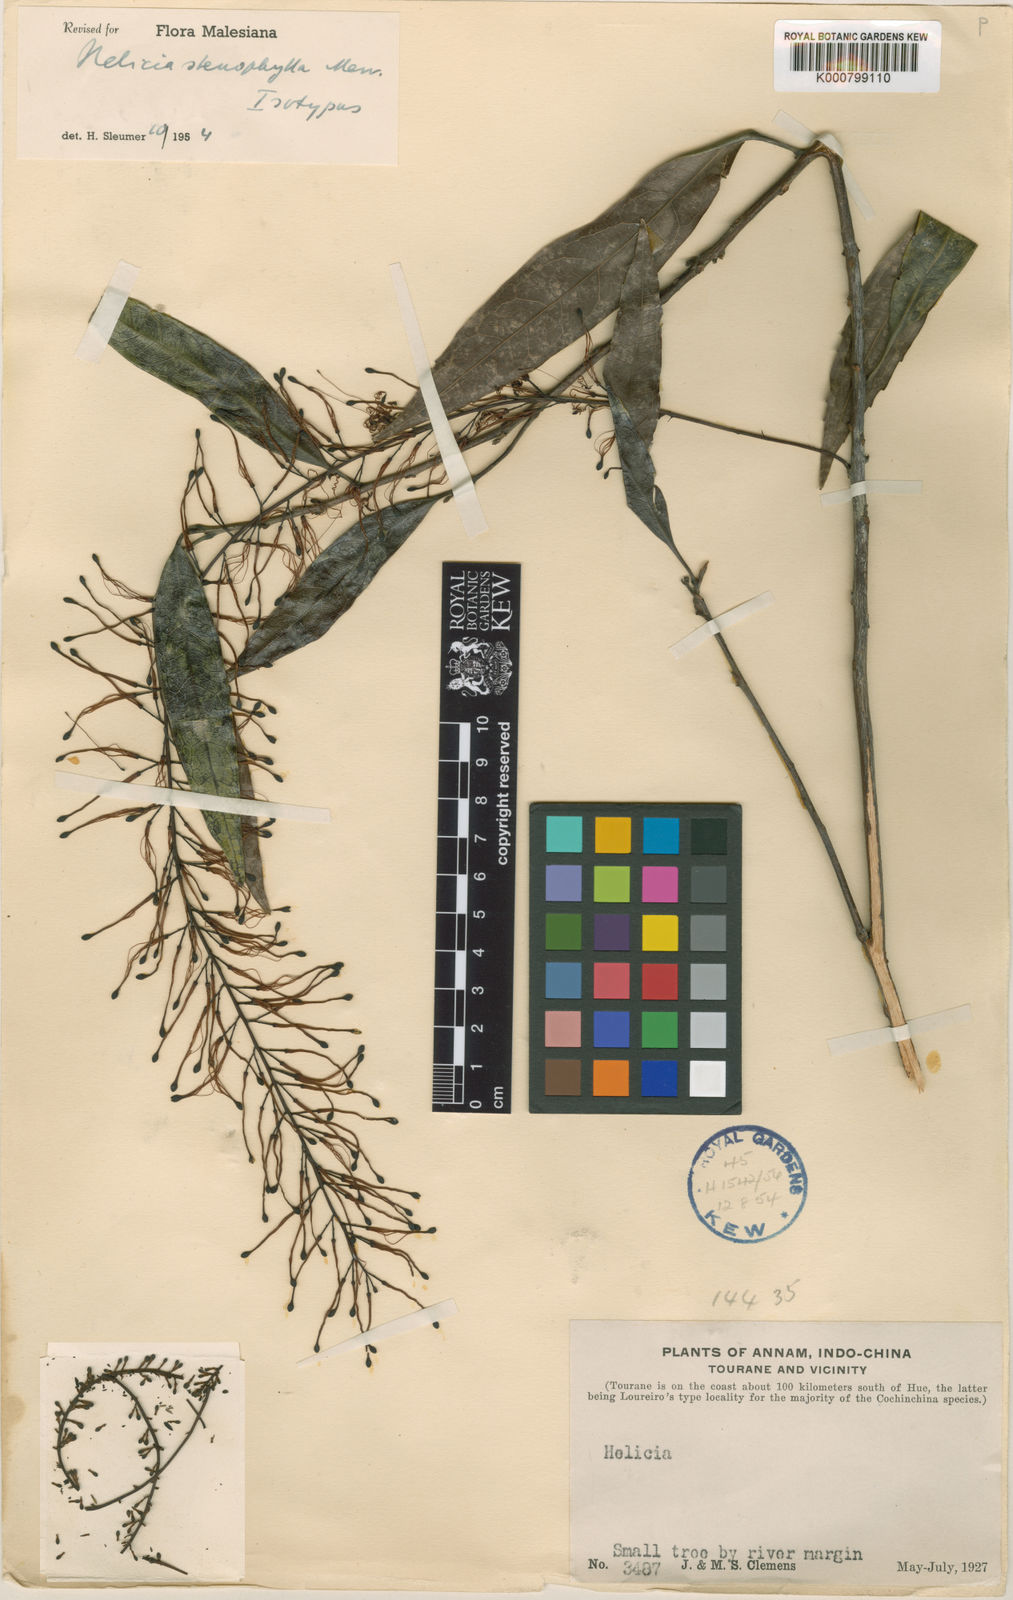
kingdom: Plantae
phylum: Tracheophyta
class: Magnoliopsida
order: Proteales
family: Proteaceae
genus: Helicia
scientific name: Helicia stenophylla
